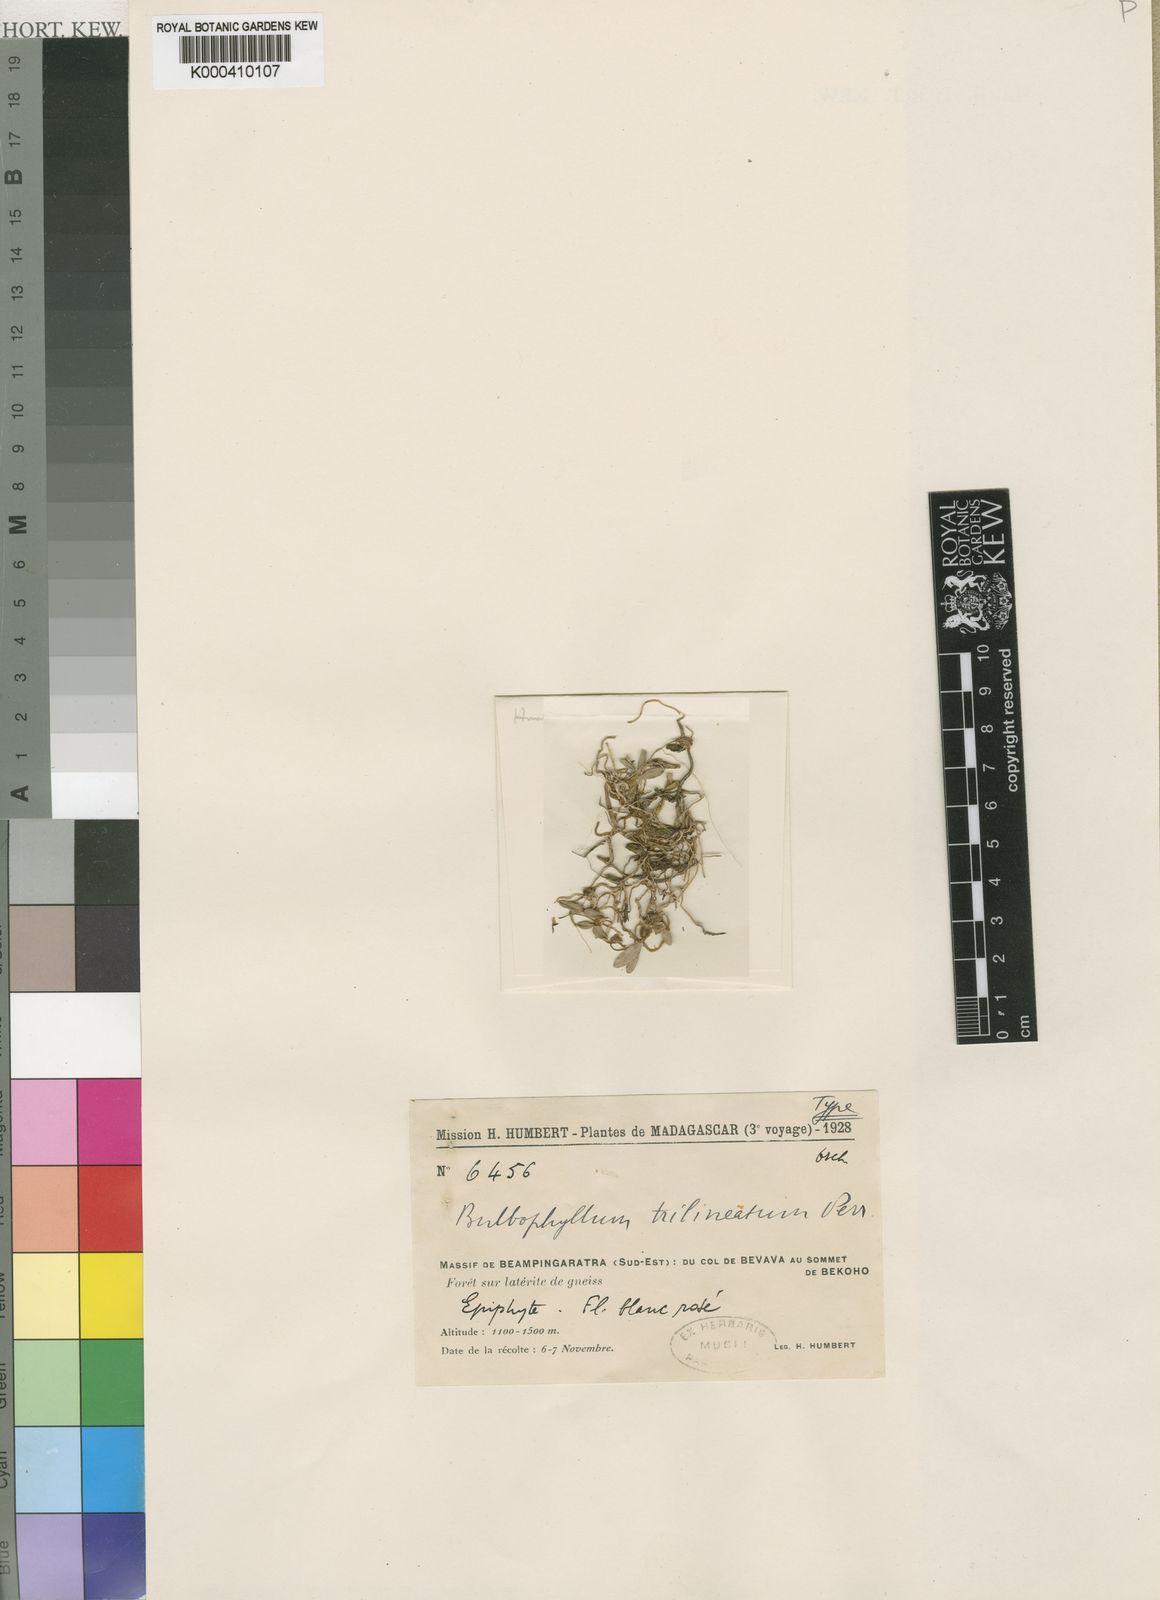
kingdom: Plantae
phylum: Tracheophyta
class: Liliopsida
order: Asparagales
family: Orchidaceae
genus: Bulbophyllum
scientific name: Bulbophyllum trilineatum
